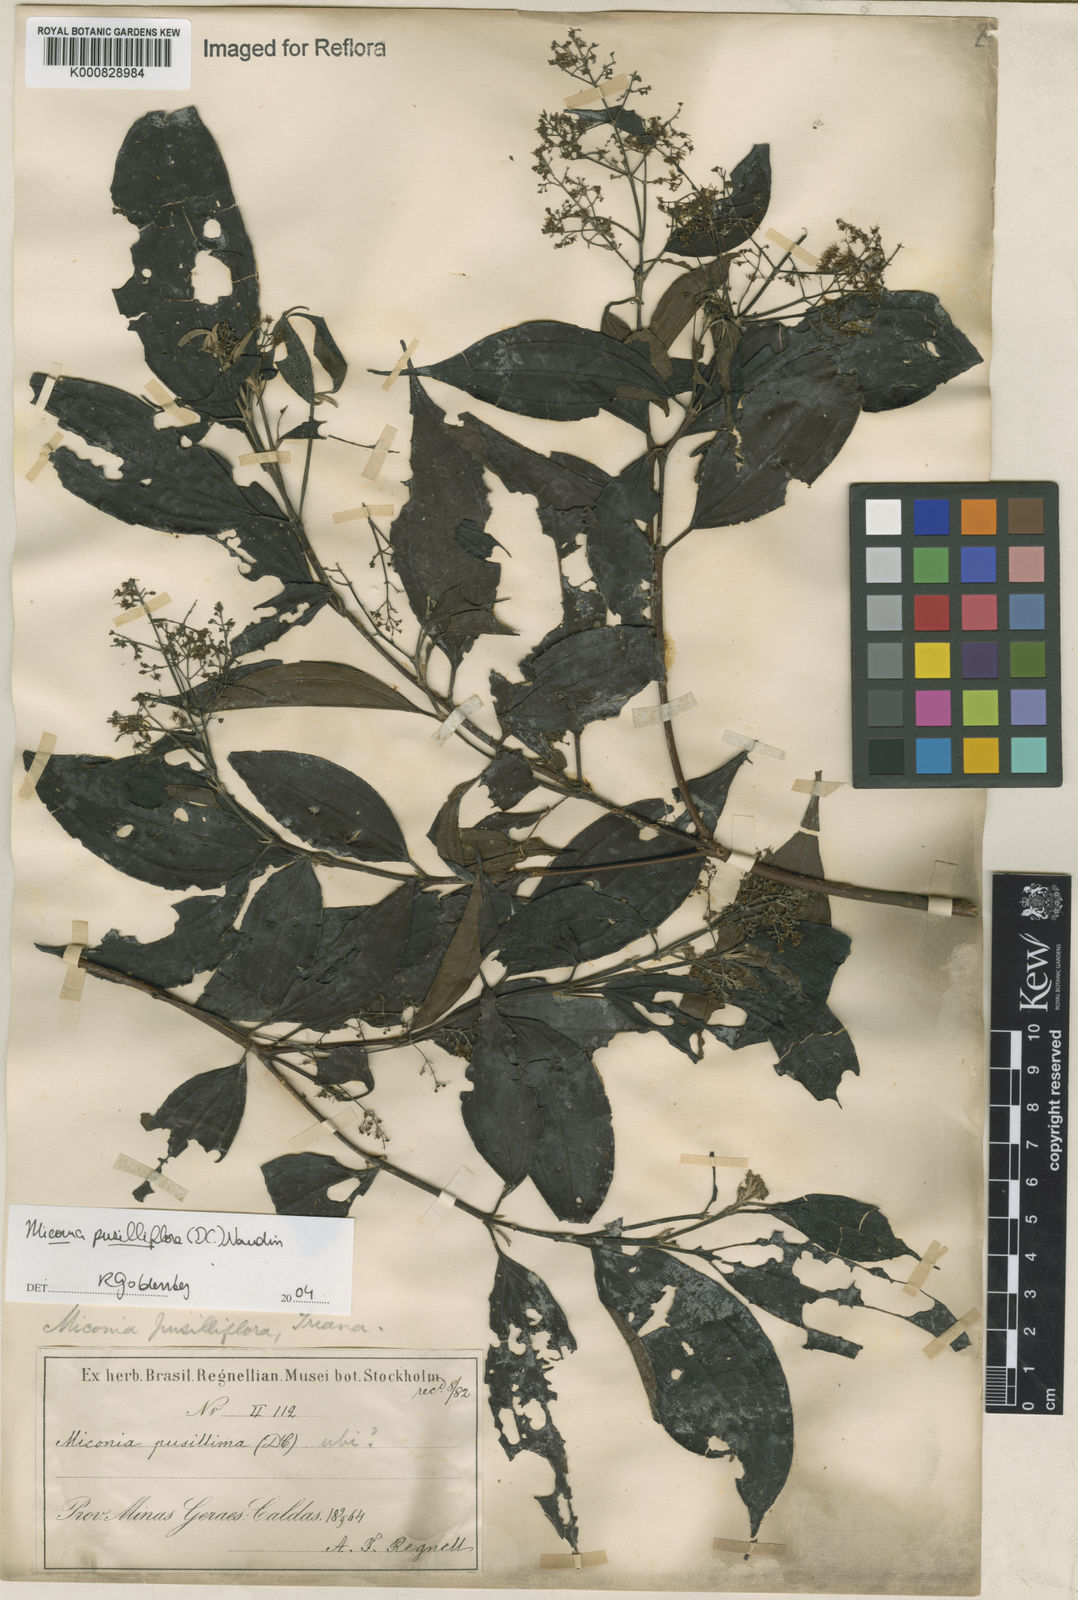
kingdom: Plantae
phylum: Tracheophyta
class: Magnoliopsida
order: Myrtales
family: Melastomataceae
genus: Miconia
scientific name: Miconia pusilliflora
